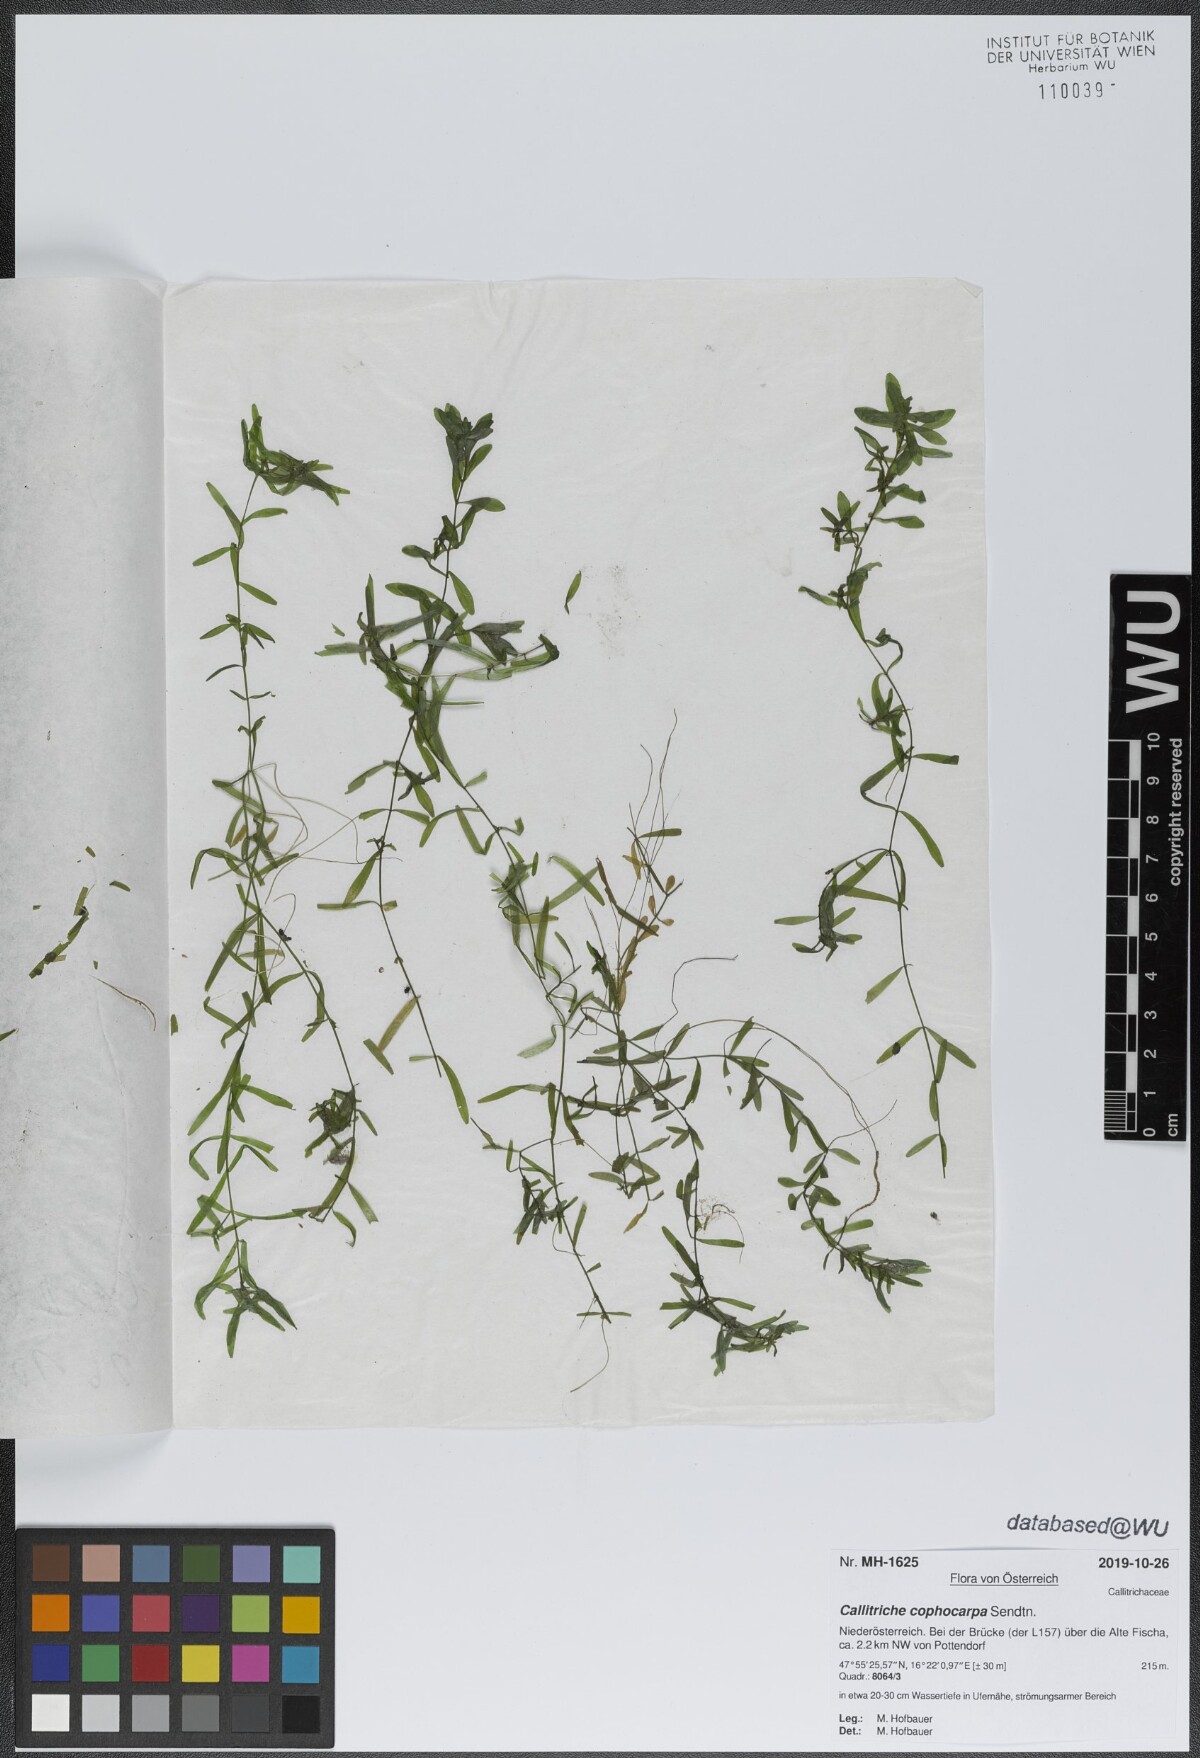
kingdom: Plantae
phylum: Tracheophyta
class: Magnoliopsida
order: Lamiales
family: Plantaginaceae
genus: Callitriche
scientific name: Callitriche cophocarpa
